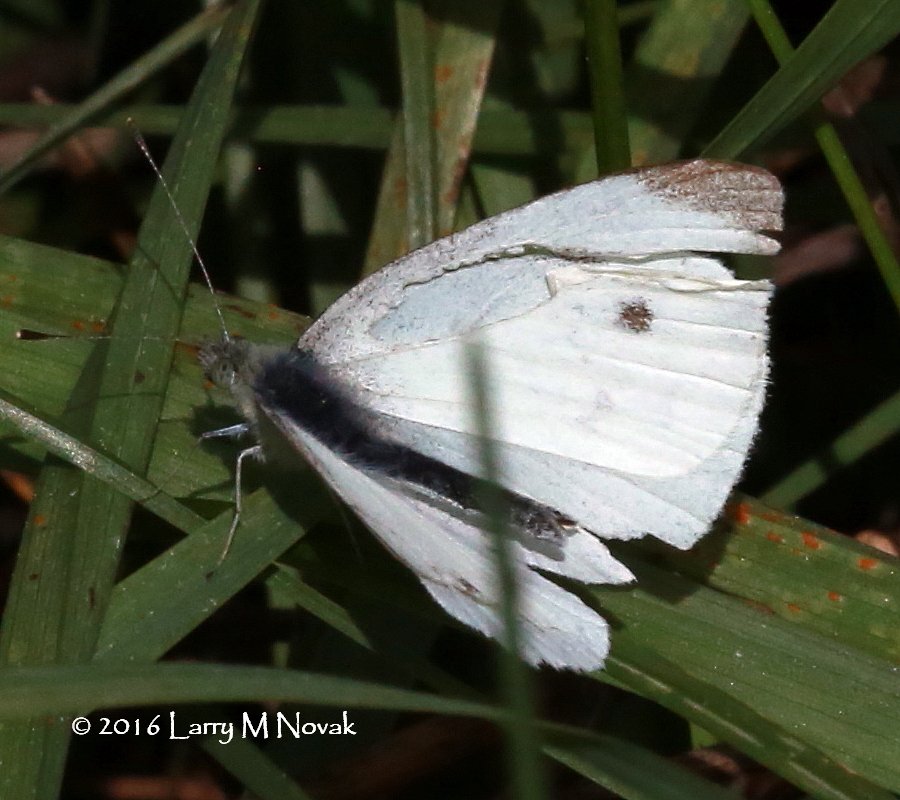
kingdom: Animalia
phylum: Arthropoda
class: Insecta
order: Lepidoptera
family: Pieridae
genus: Pieris
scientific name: Pieris rapae
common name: Cabbage White
